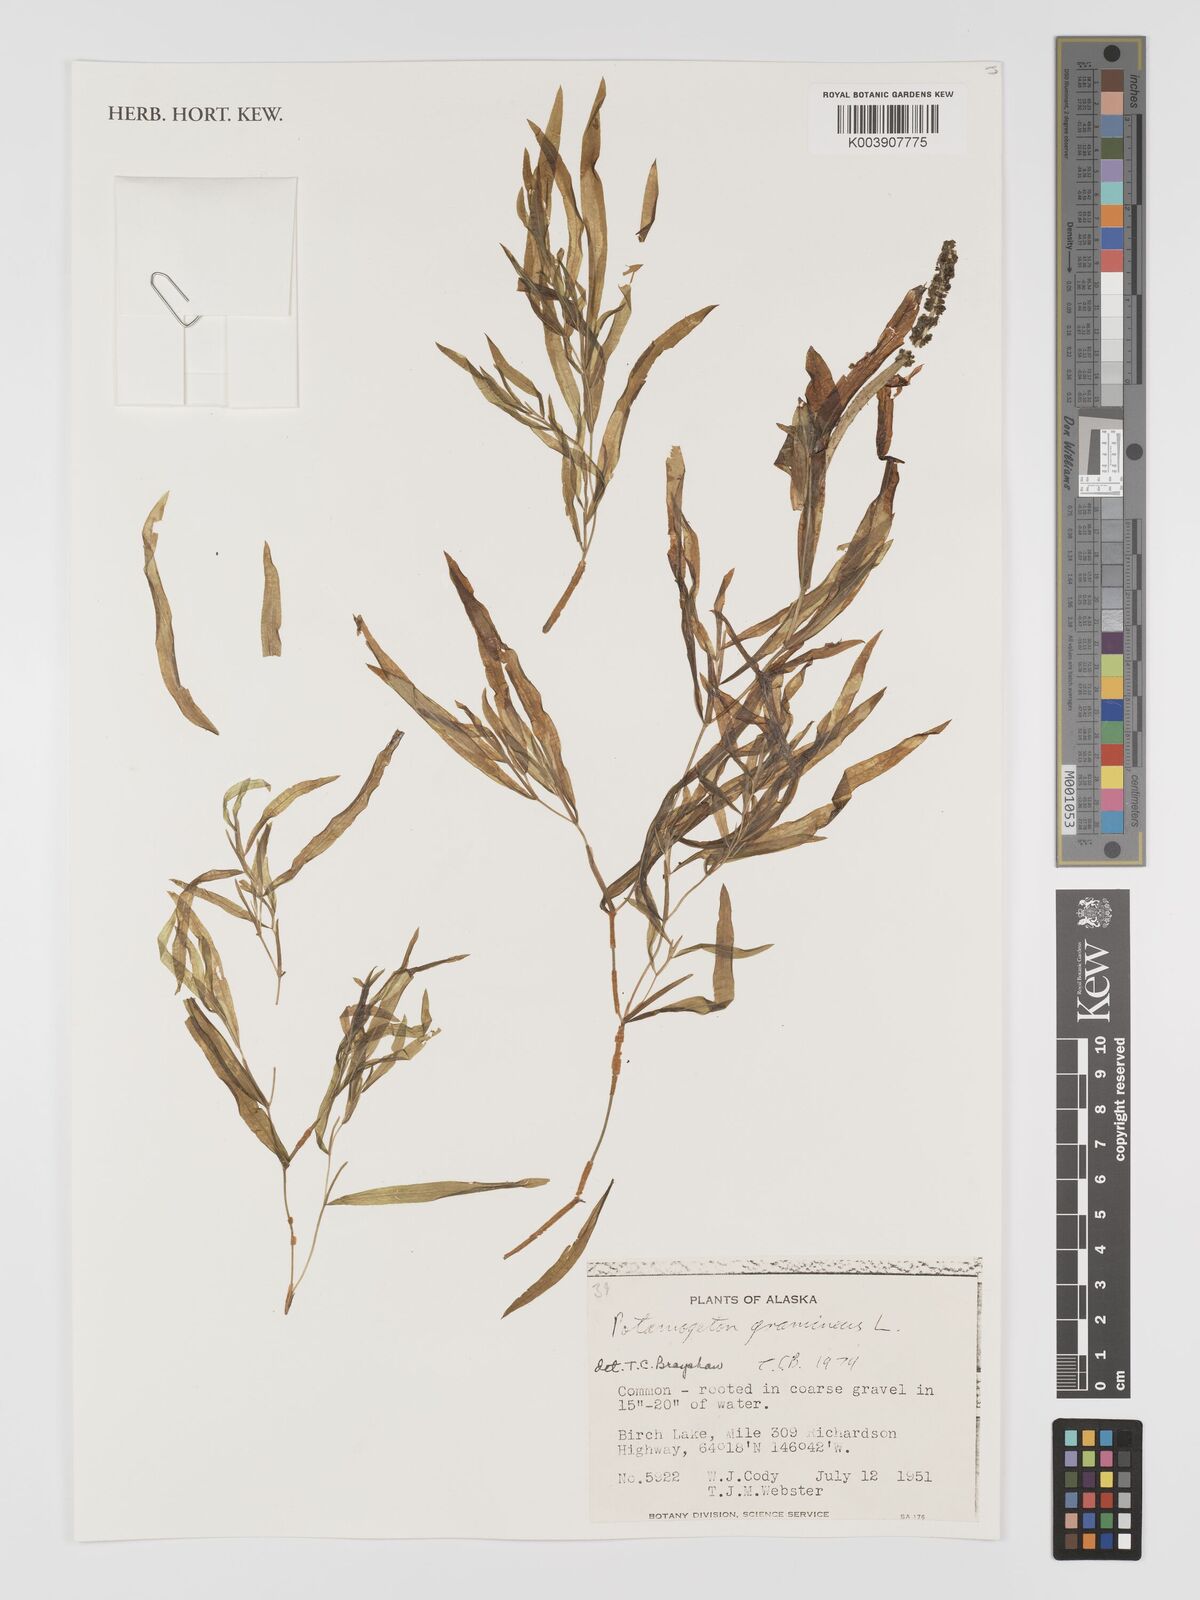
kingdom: Plantae
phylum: Tracheophyta
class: Liliopsida
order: Alismatales
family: Potamogetonaceae
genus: Potamogeton
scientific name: Potamogeton gramineus
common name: Various-leaved pondweed
